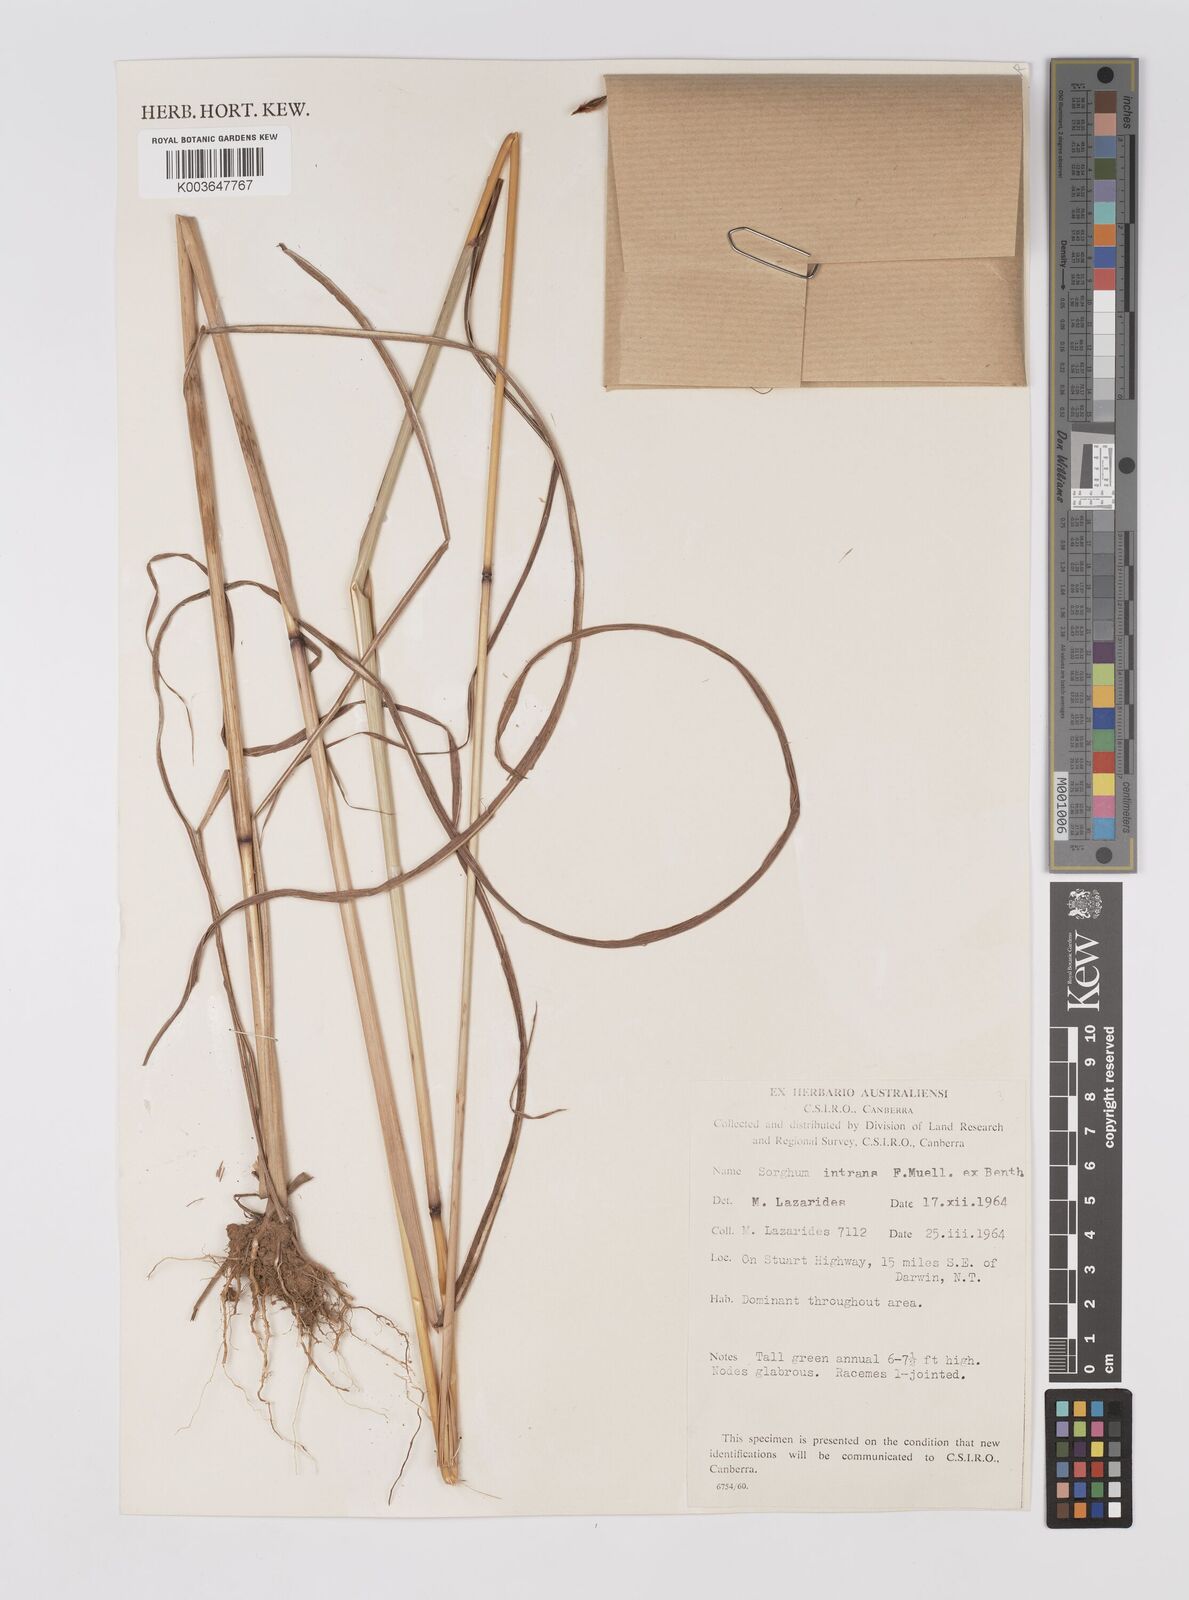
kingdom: Plantae
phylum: Tracheophyta
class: Liliopsida
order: Poales
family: Poaceae
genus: Sarga
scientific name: Sarga intrans
